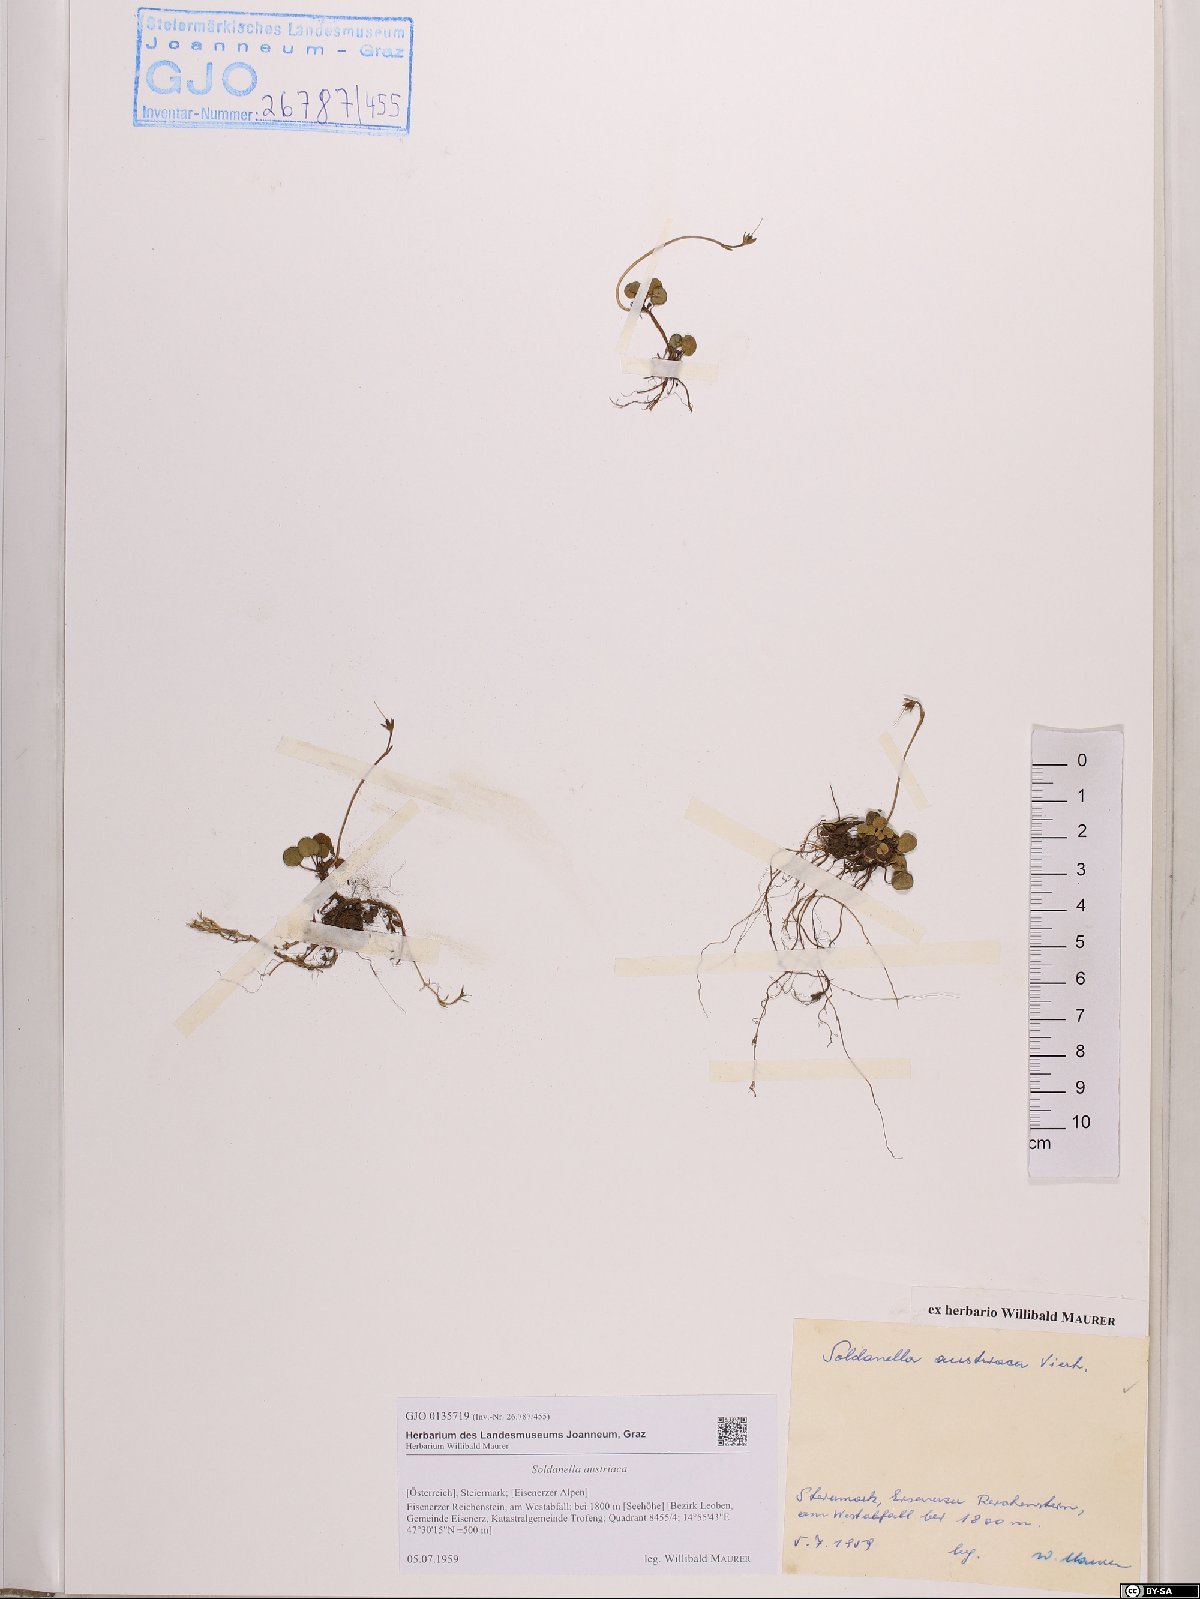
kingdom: Plantae
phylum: Tracheophyta
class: Magnoliopsida
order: Ericales
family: Primulaceae
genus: Soldanella
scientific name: Soldanella austriaca
